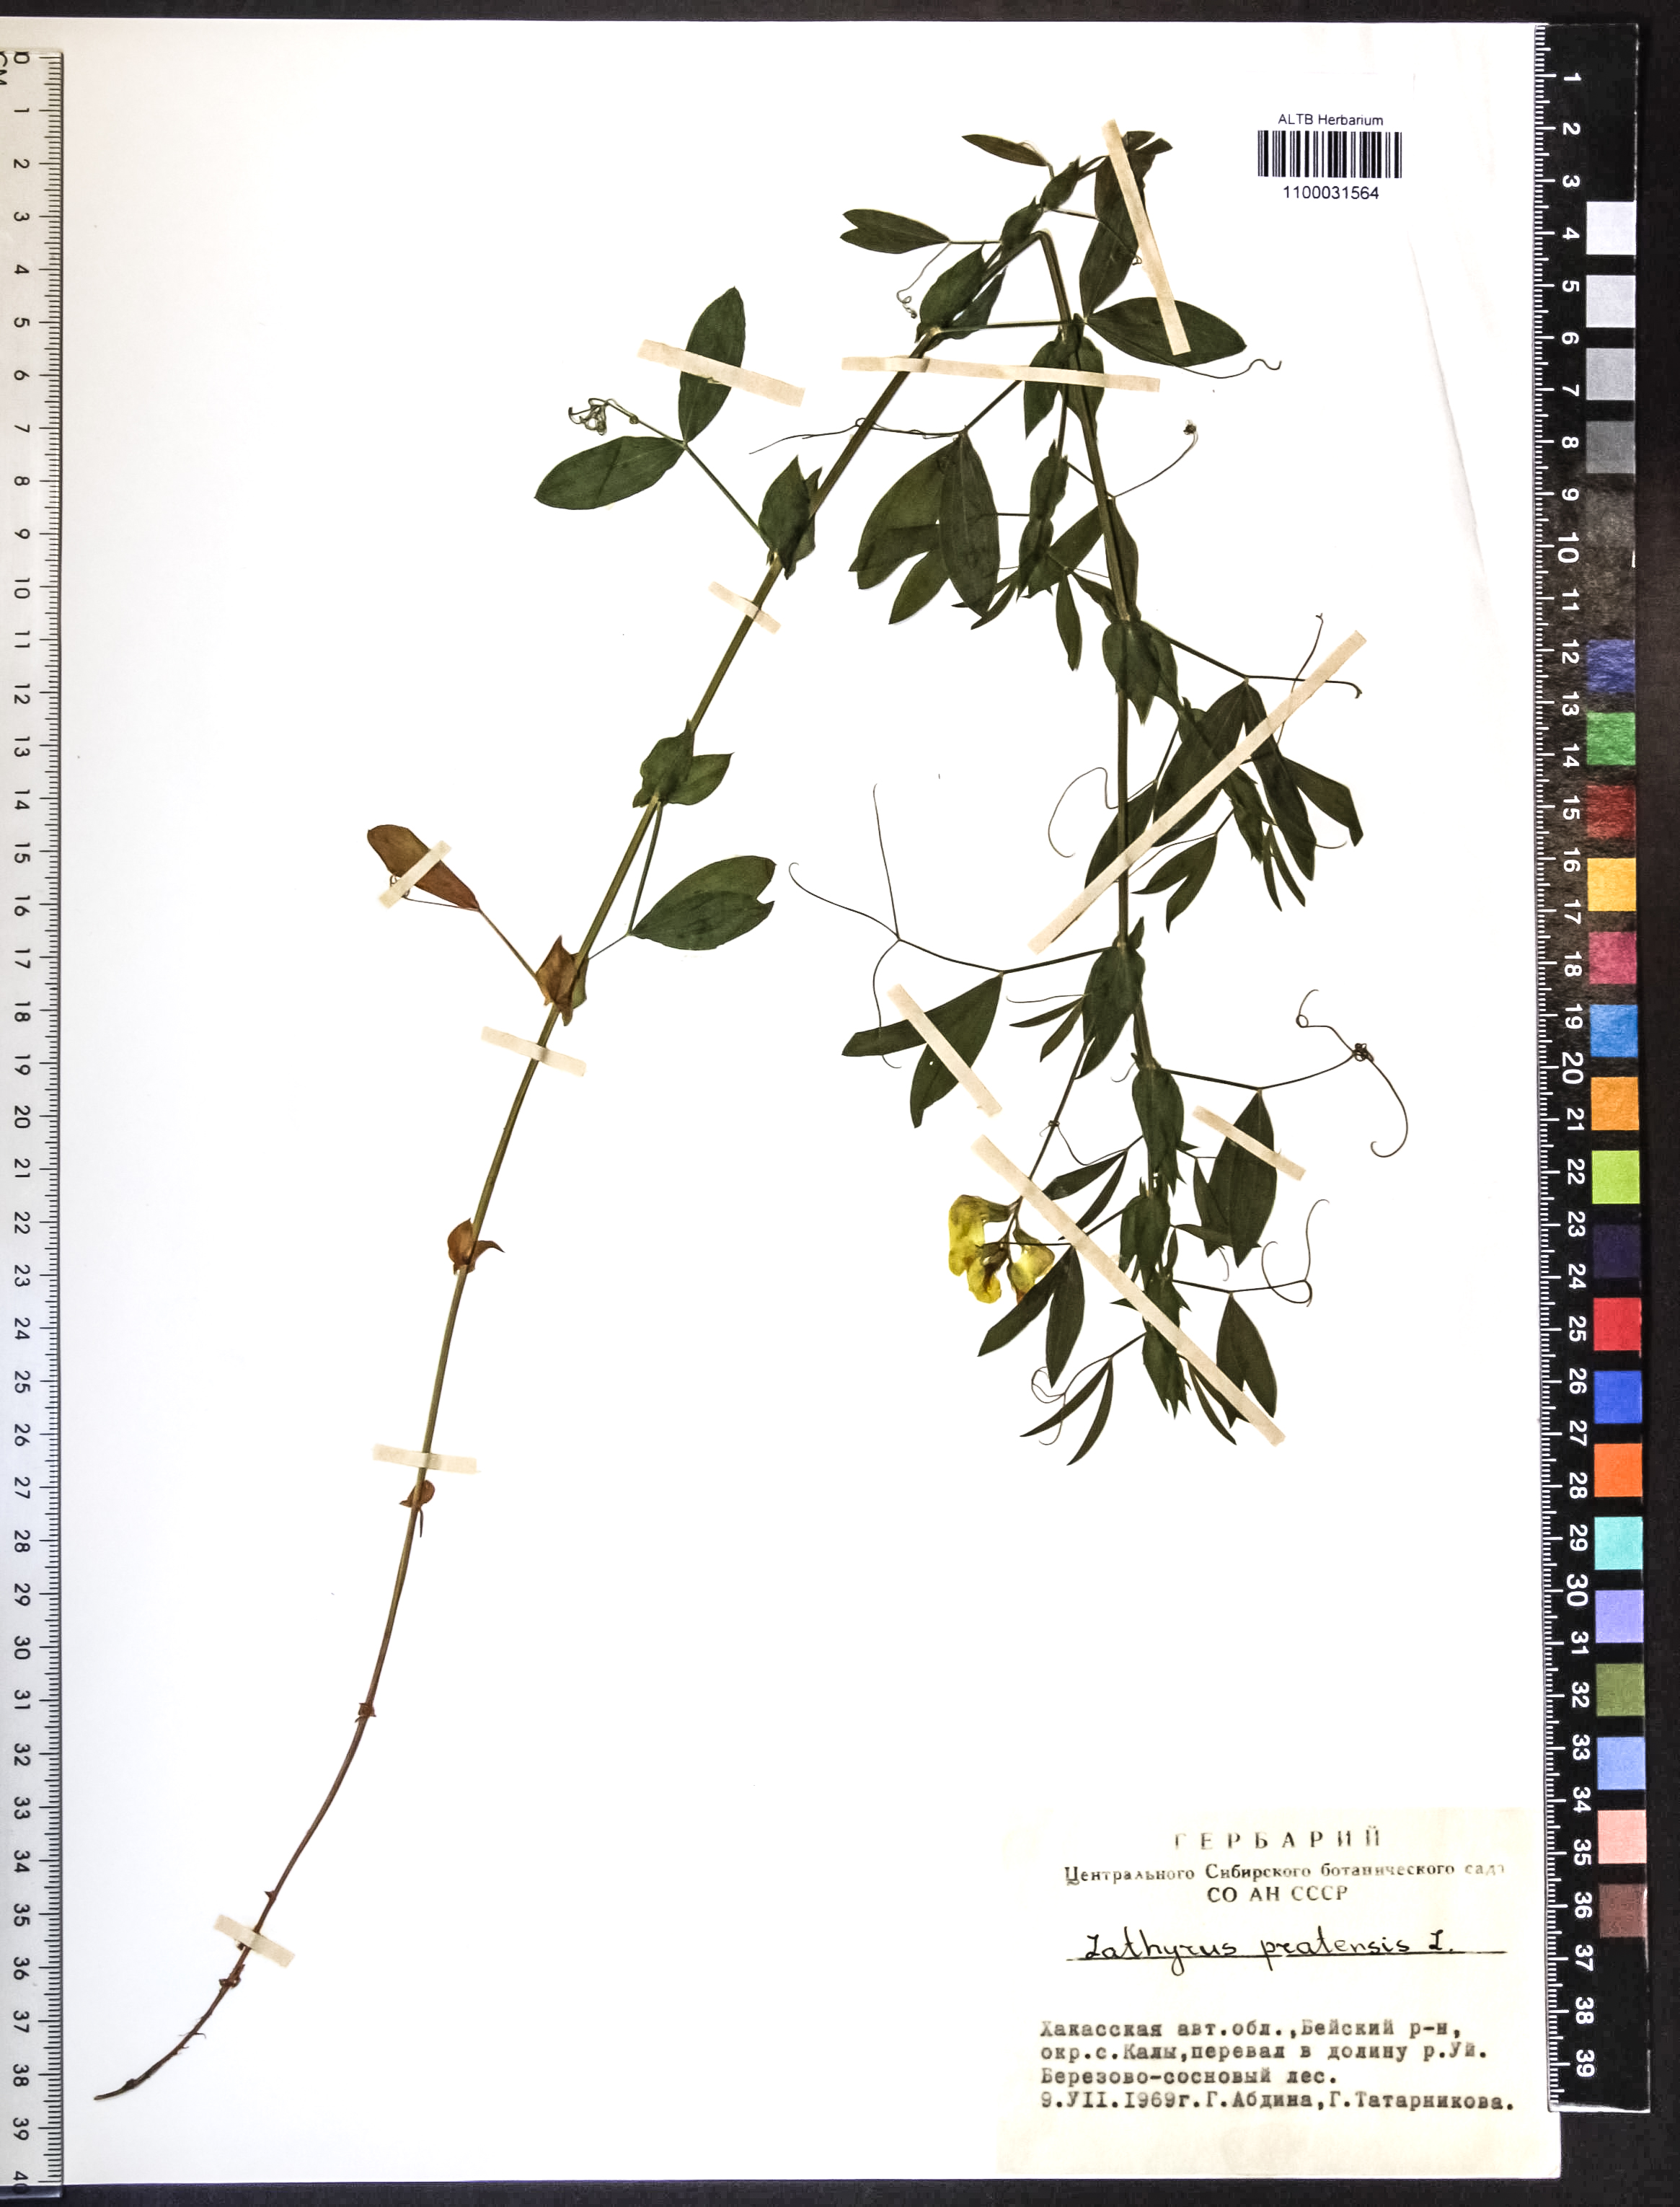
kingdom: Plantae
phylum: Tracheophyta
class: Magnoliopsida
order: Fabales
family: Fabaceae
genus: Lathyrus
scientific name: Lathyrus pratensis
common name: Meadow vetchling
